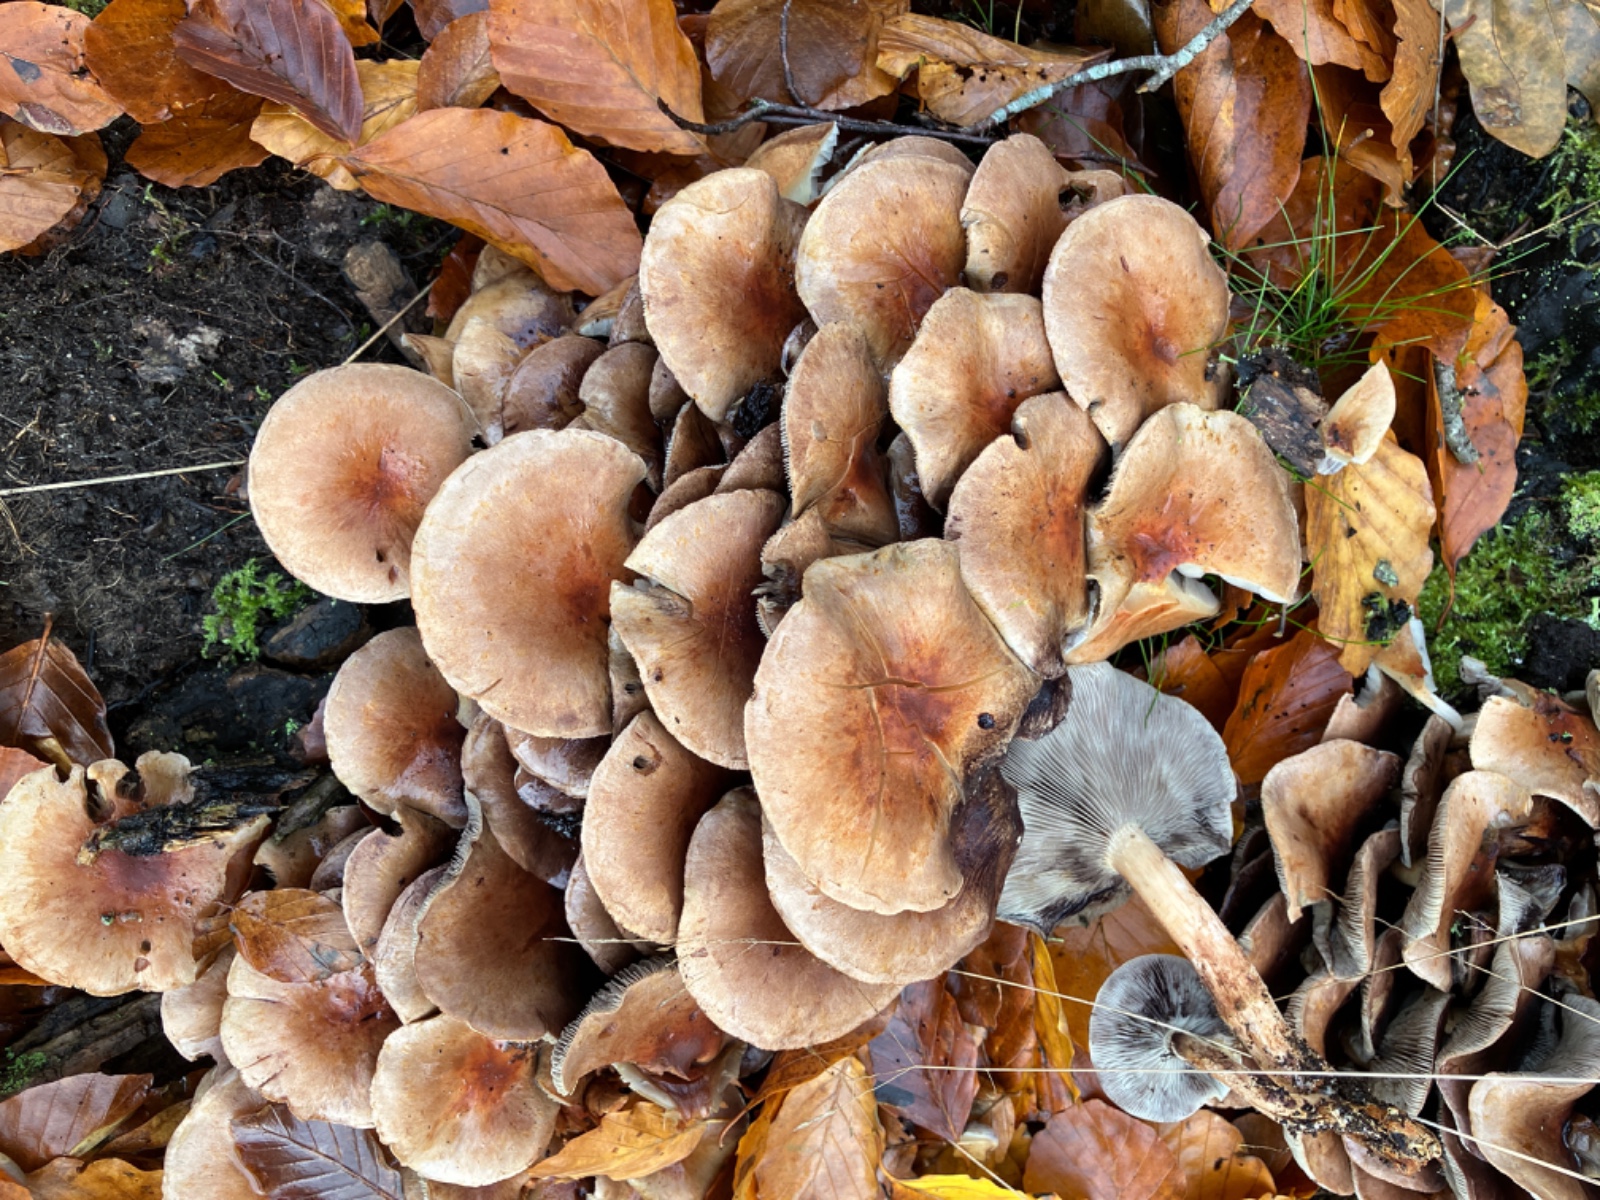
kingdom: Fungi
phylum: Basidiomycota
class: Agaricomycetes
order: Agaricales
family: Strophariaceae
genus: Hypholoma
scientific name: Hypholoma lateritium
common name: teglrød svovlhat
